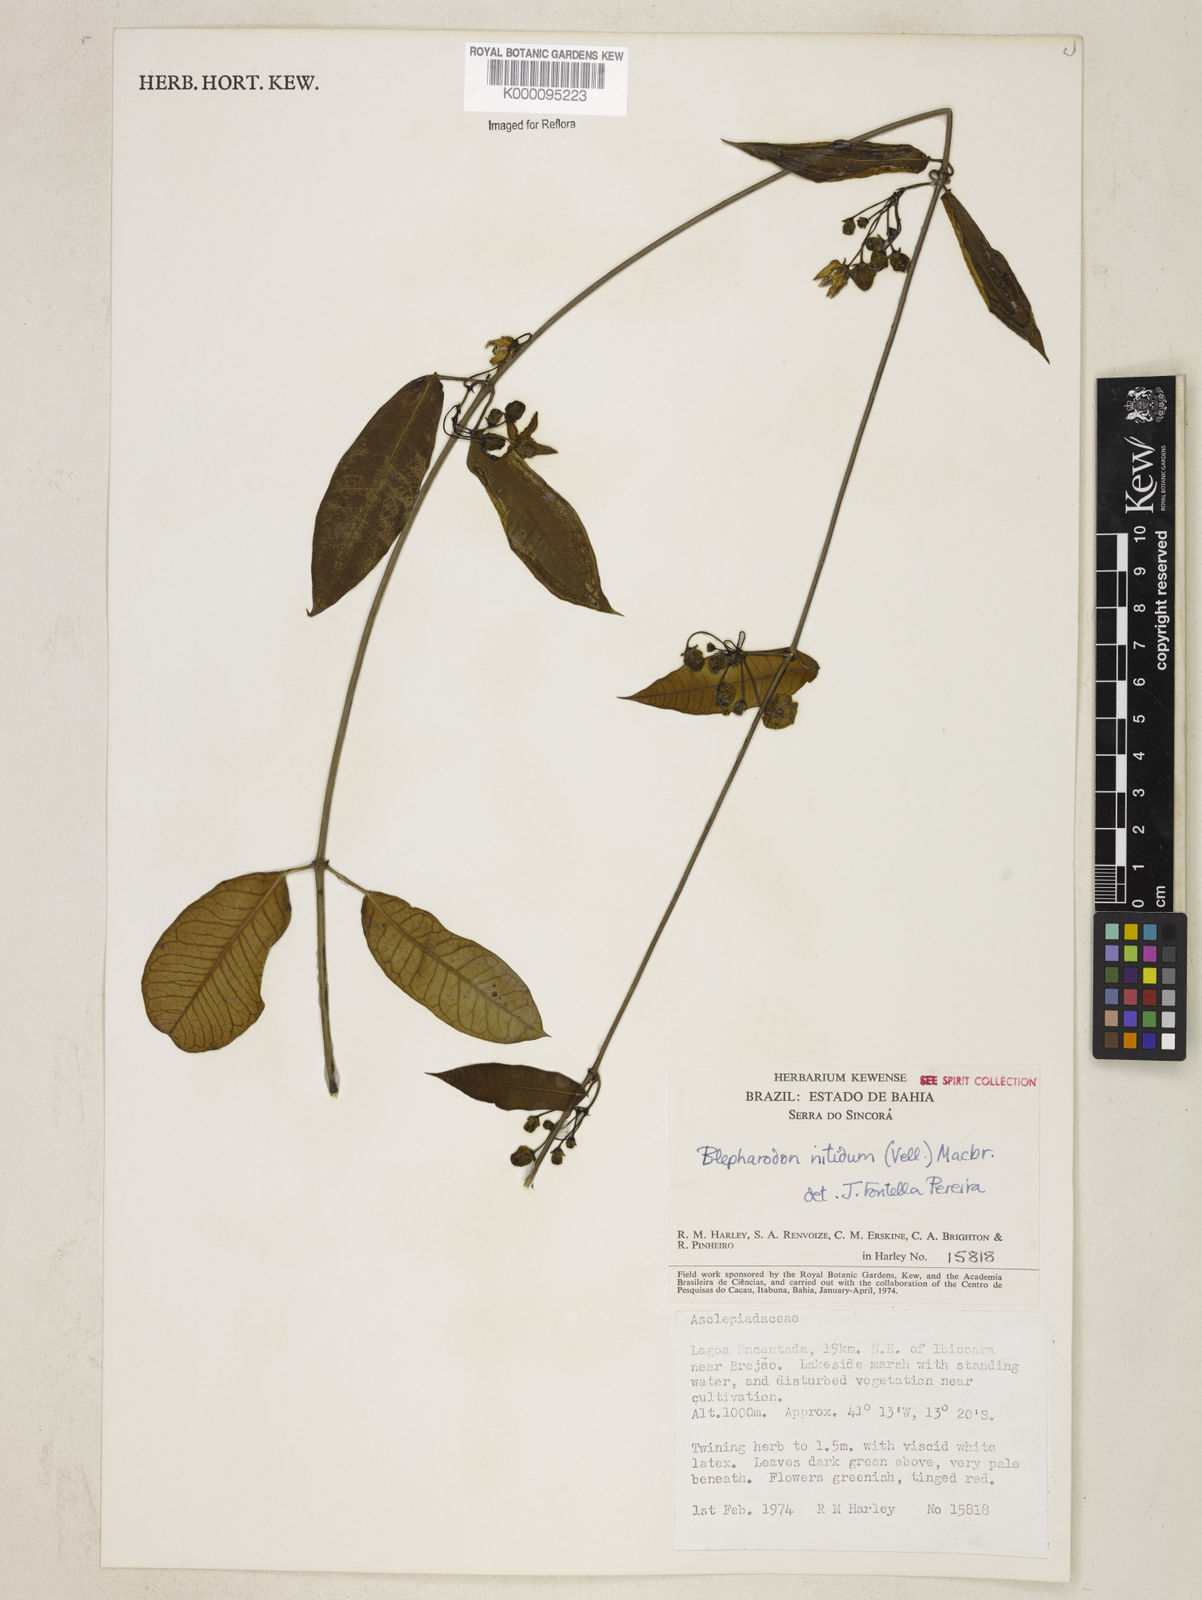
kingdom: Plantae
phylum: Tracheophyta
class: Magnoliopsida
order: Gentianales
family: Apocynaceae
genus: Blepharodon
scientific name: Blepharodon pictum
